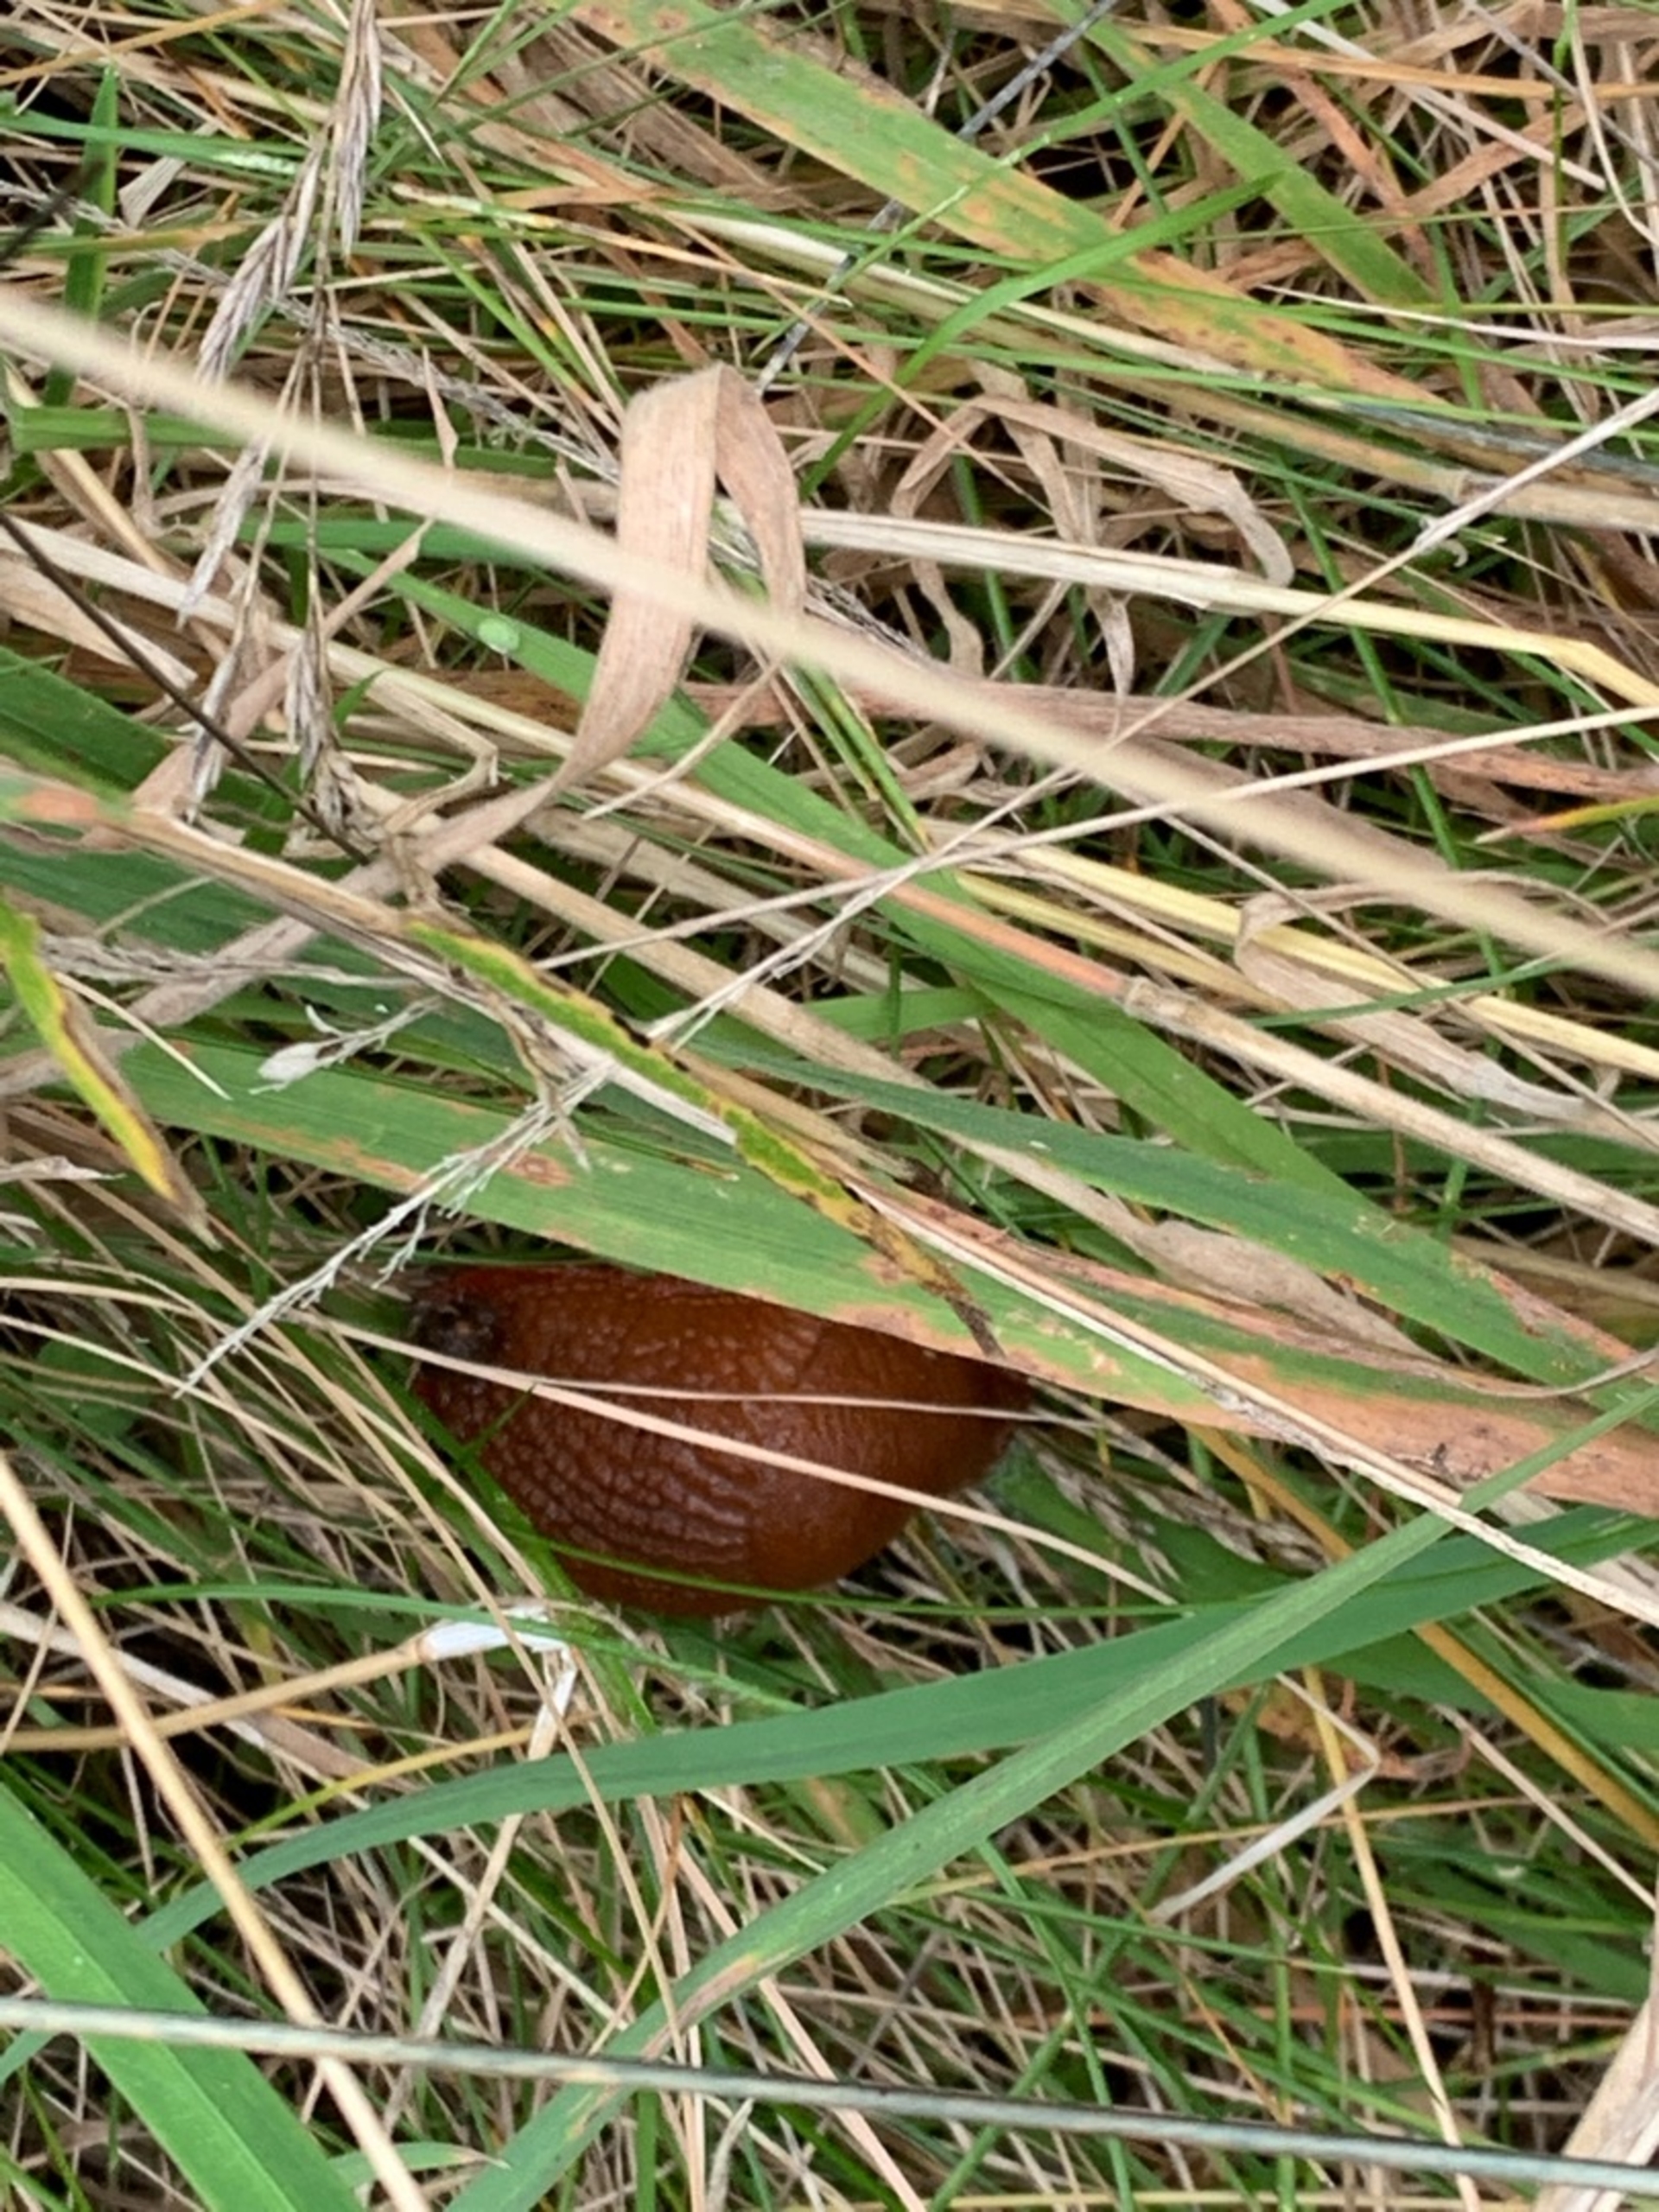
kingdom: Animalia
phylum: Mollusca
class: Gastropoda
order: Stylommatophora
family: Arionidae
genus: Arion
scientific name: Arion vulgaris
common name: Iberisk skovsnegl
